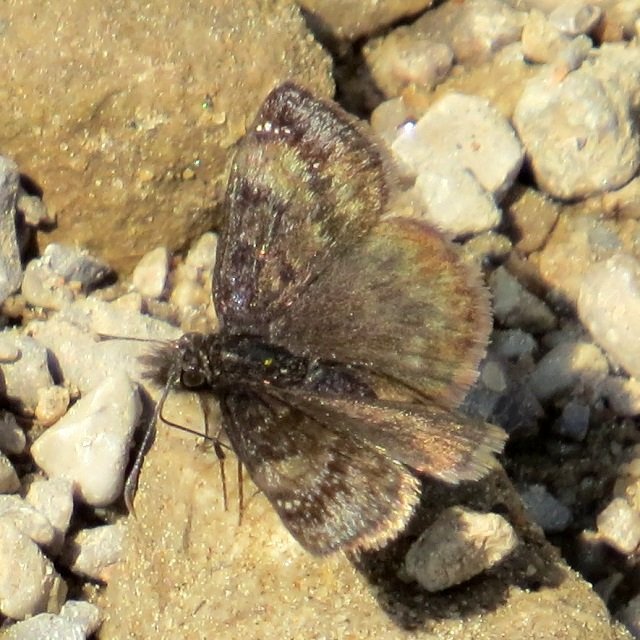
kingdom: Animalia
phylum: Arthropoda
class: Insecta
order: Lepidoptera
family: Hesperiidae
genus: Gesta
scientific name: Gesta
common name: Juvenal's Duskywing
